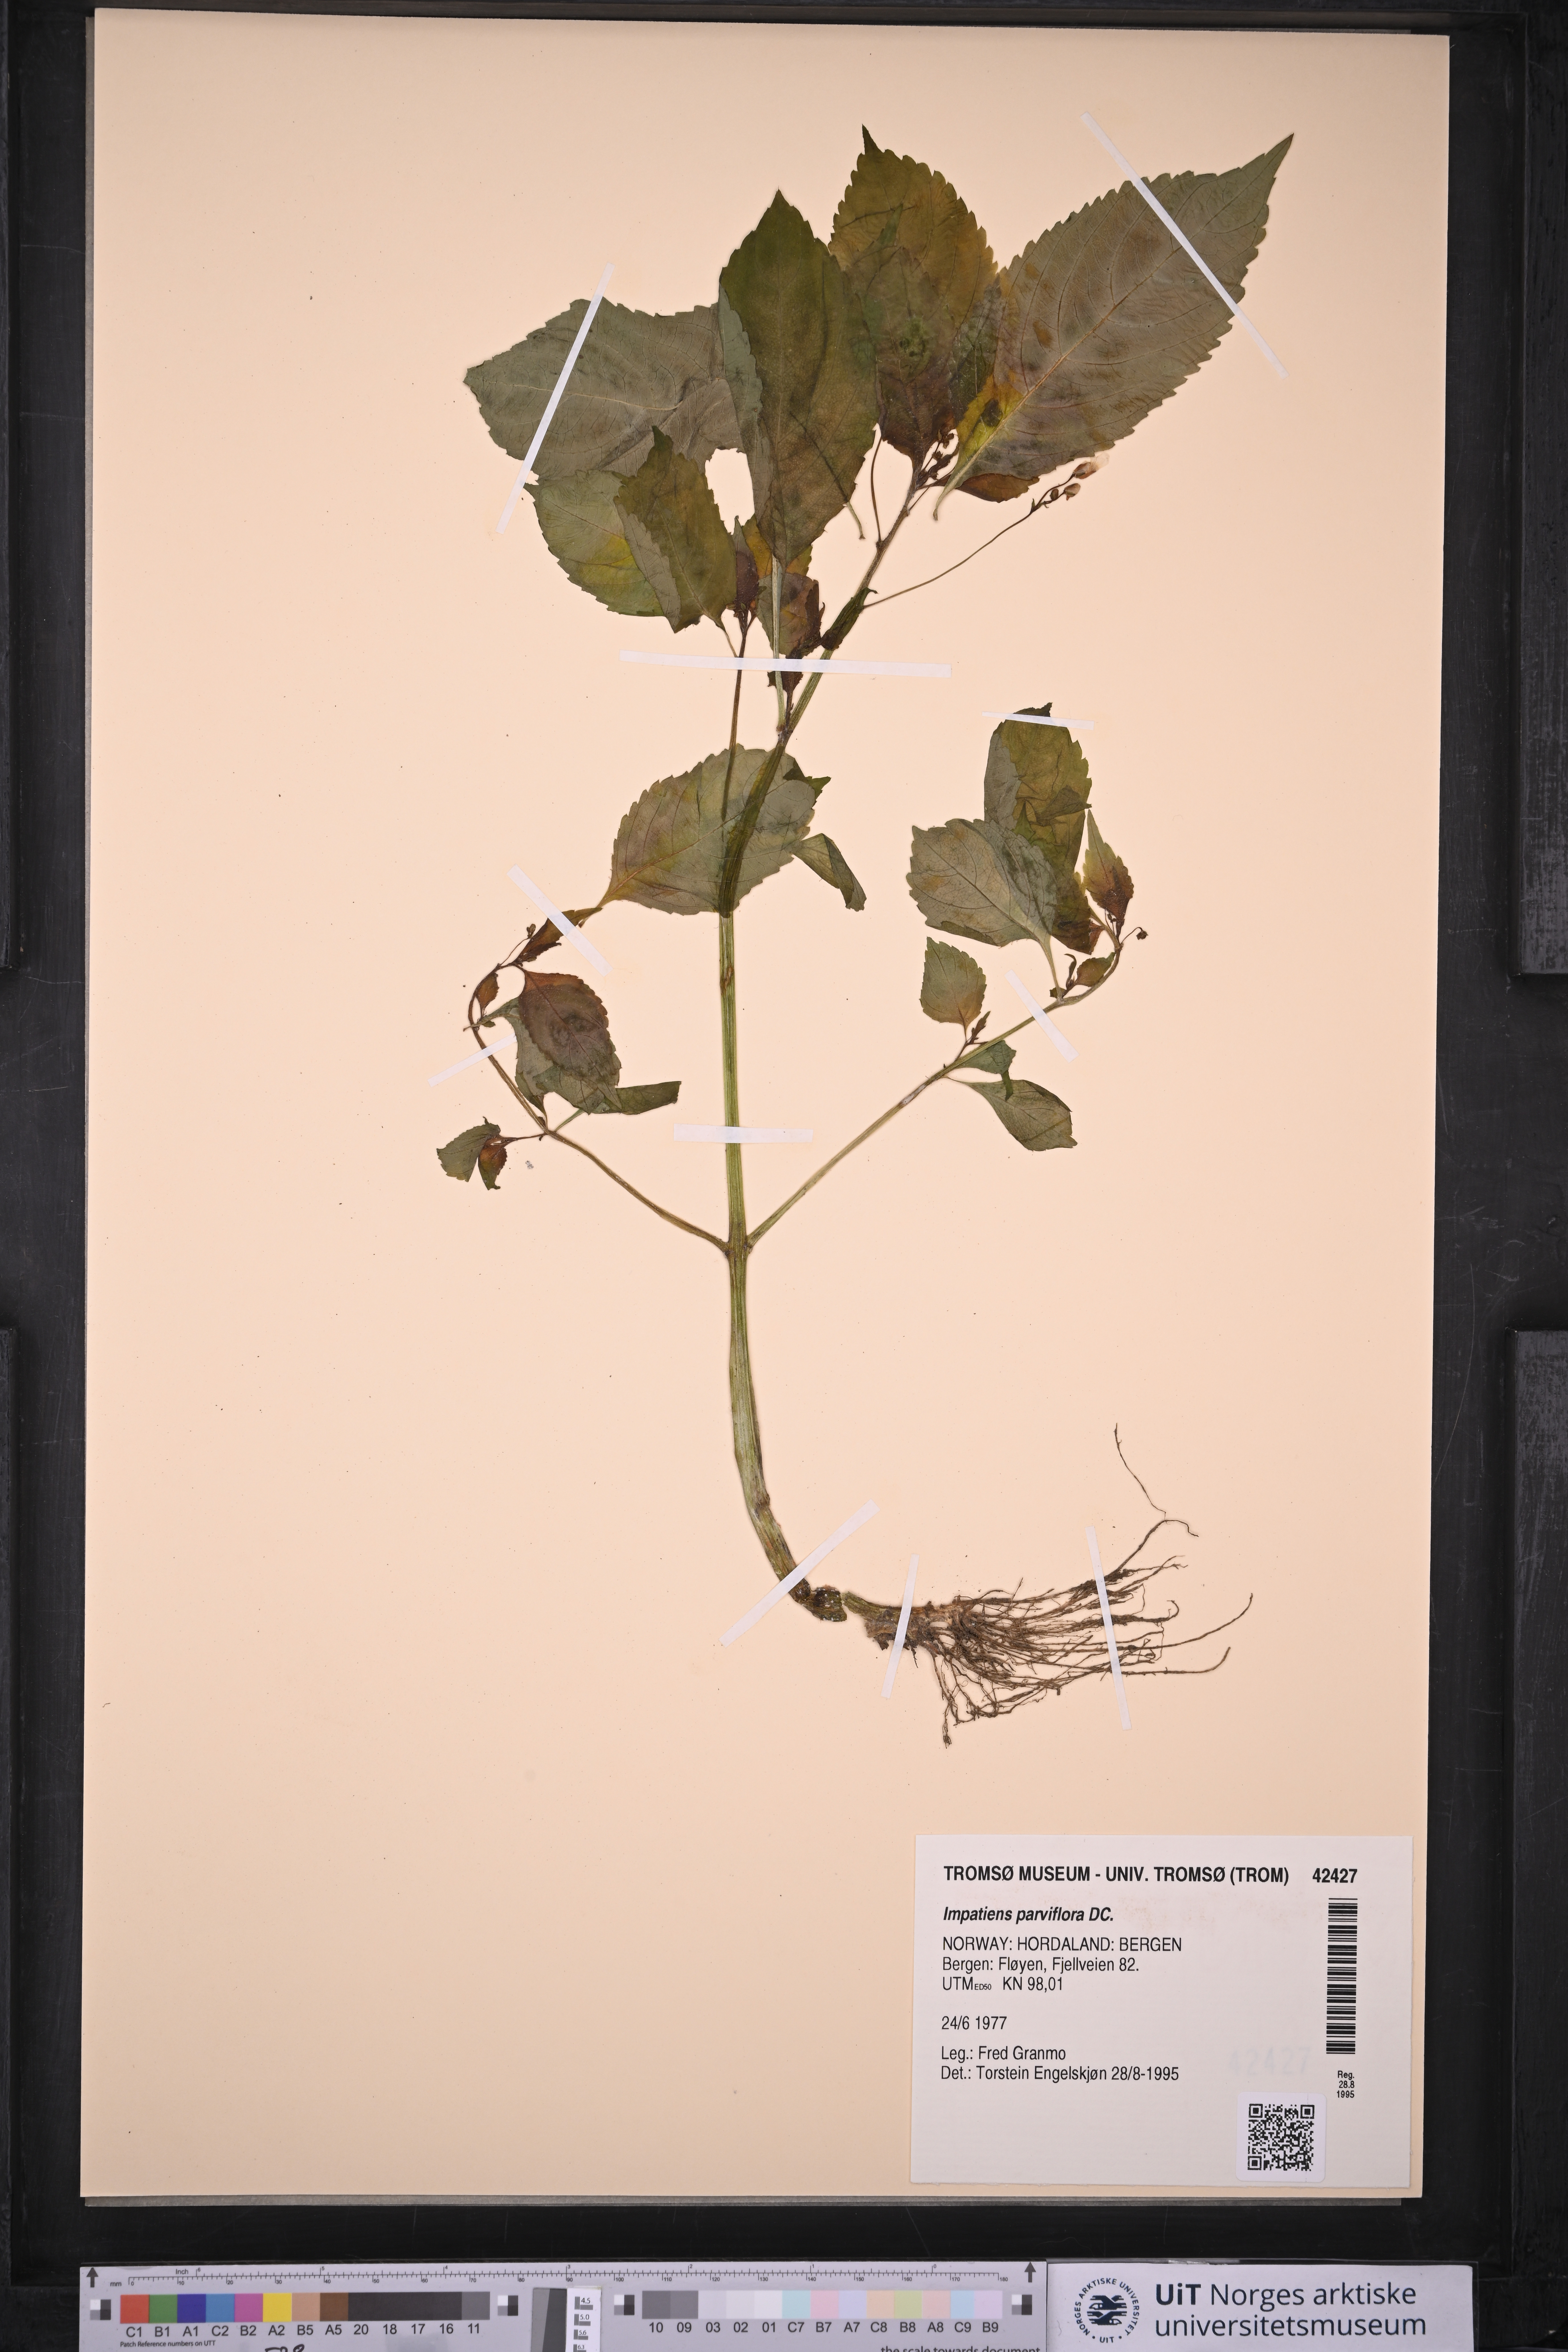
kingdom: Plantae
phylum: Tracheophyta
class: Magnoliopsida
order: Ericales
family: Balsaminaceae
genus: Impatiens
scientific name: Impatiens parviflora
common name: Small balsam
